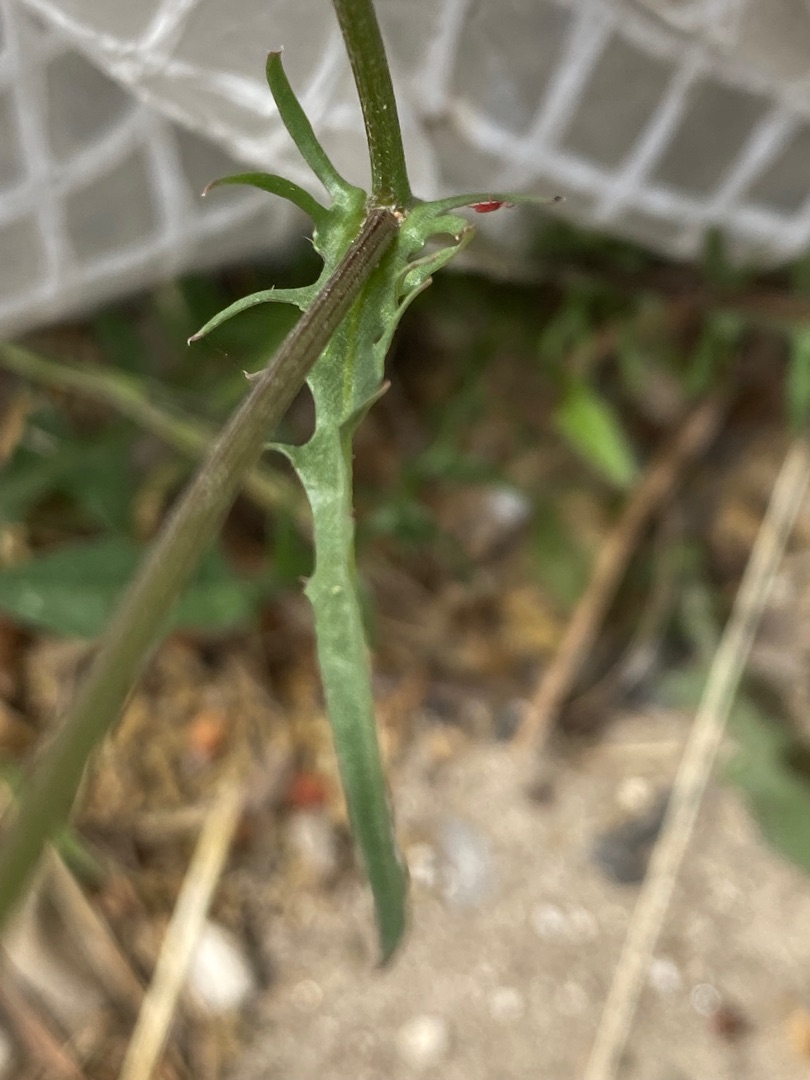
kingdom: Plantae
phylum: Tracheophyta
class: Magnoliopsida
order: Asterales
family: Asteraceae
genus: Crepis
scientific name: Crepis capillaris
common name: Grøn høgeskæg
